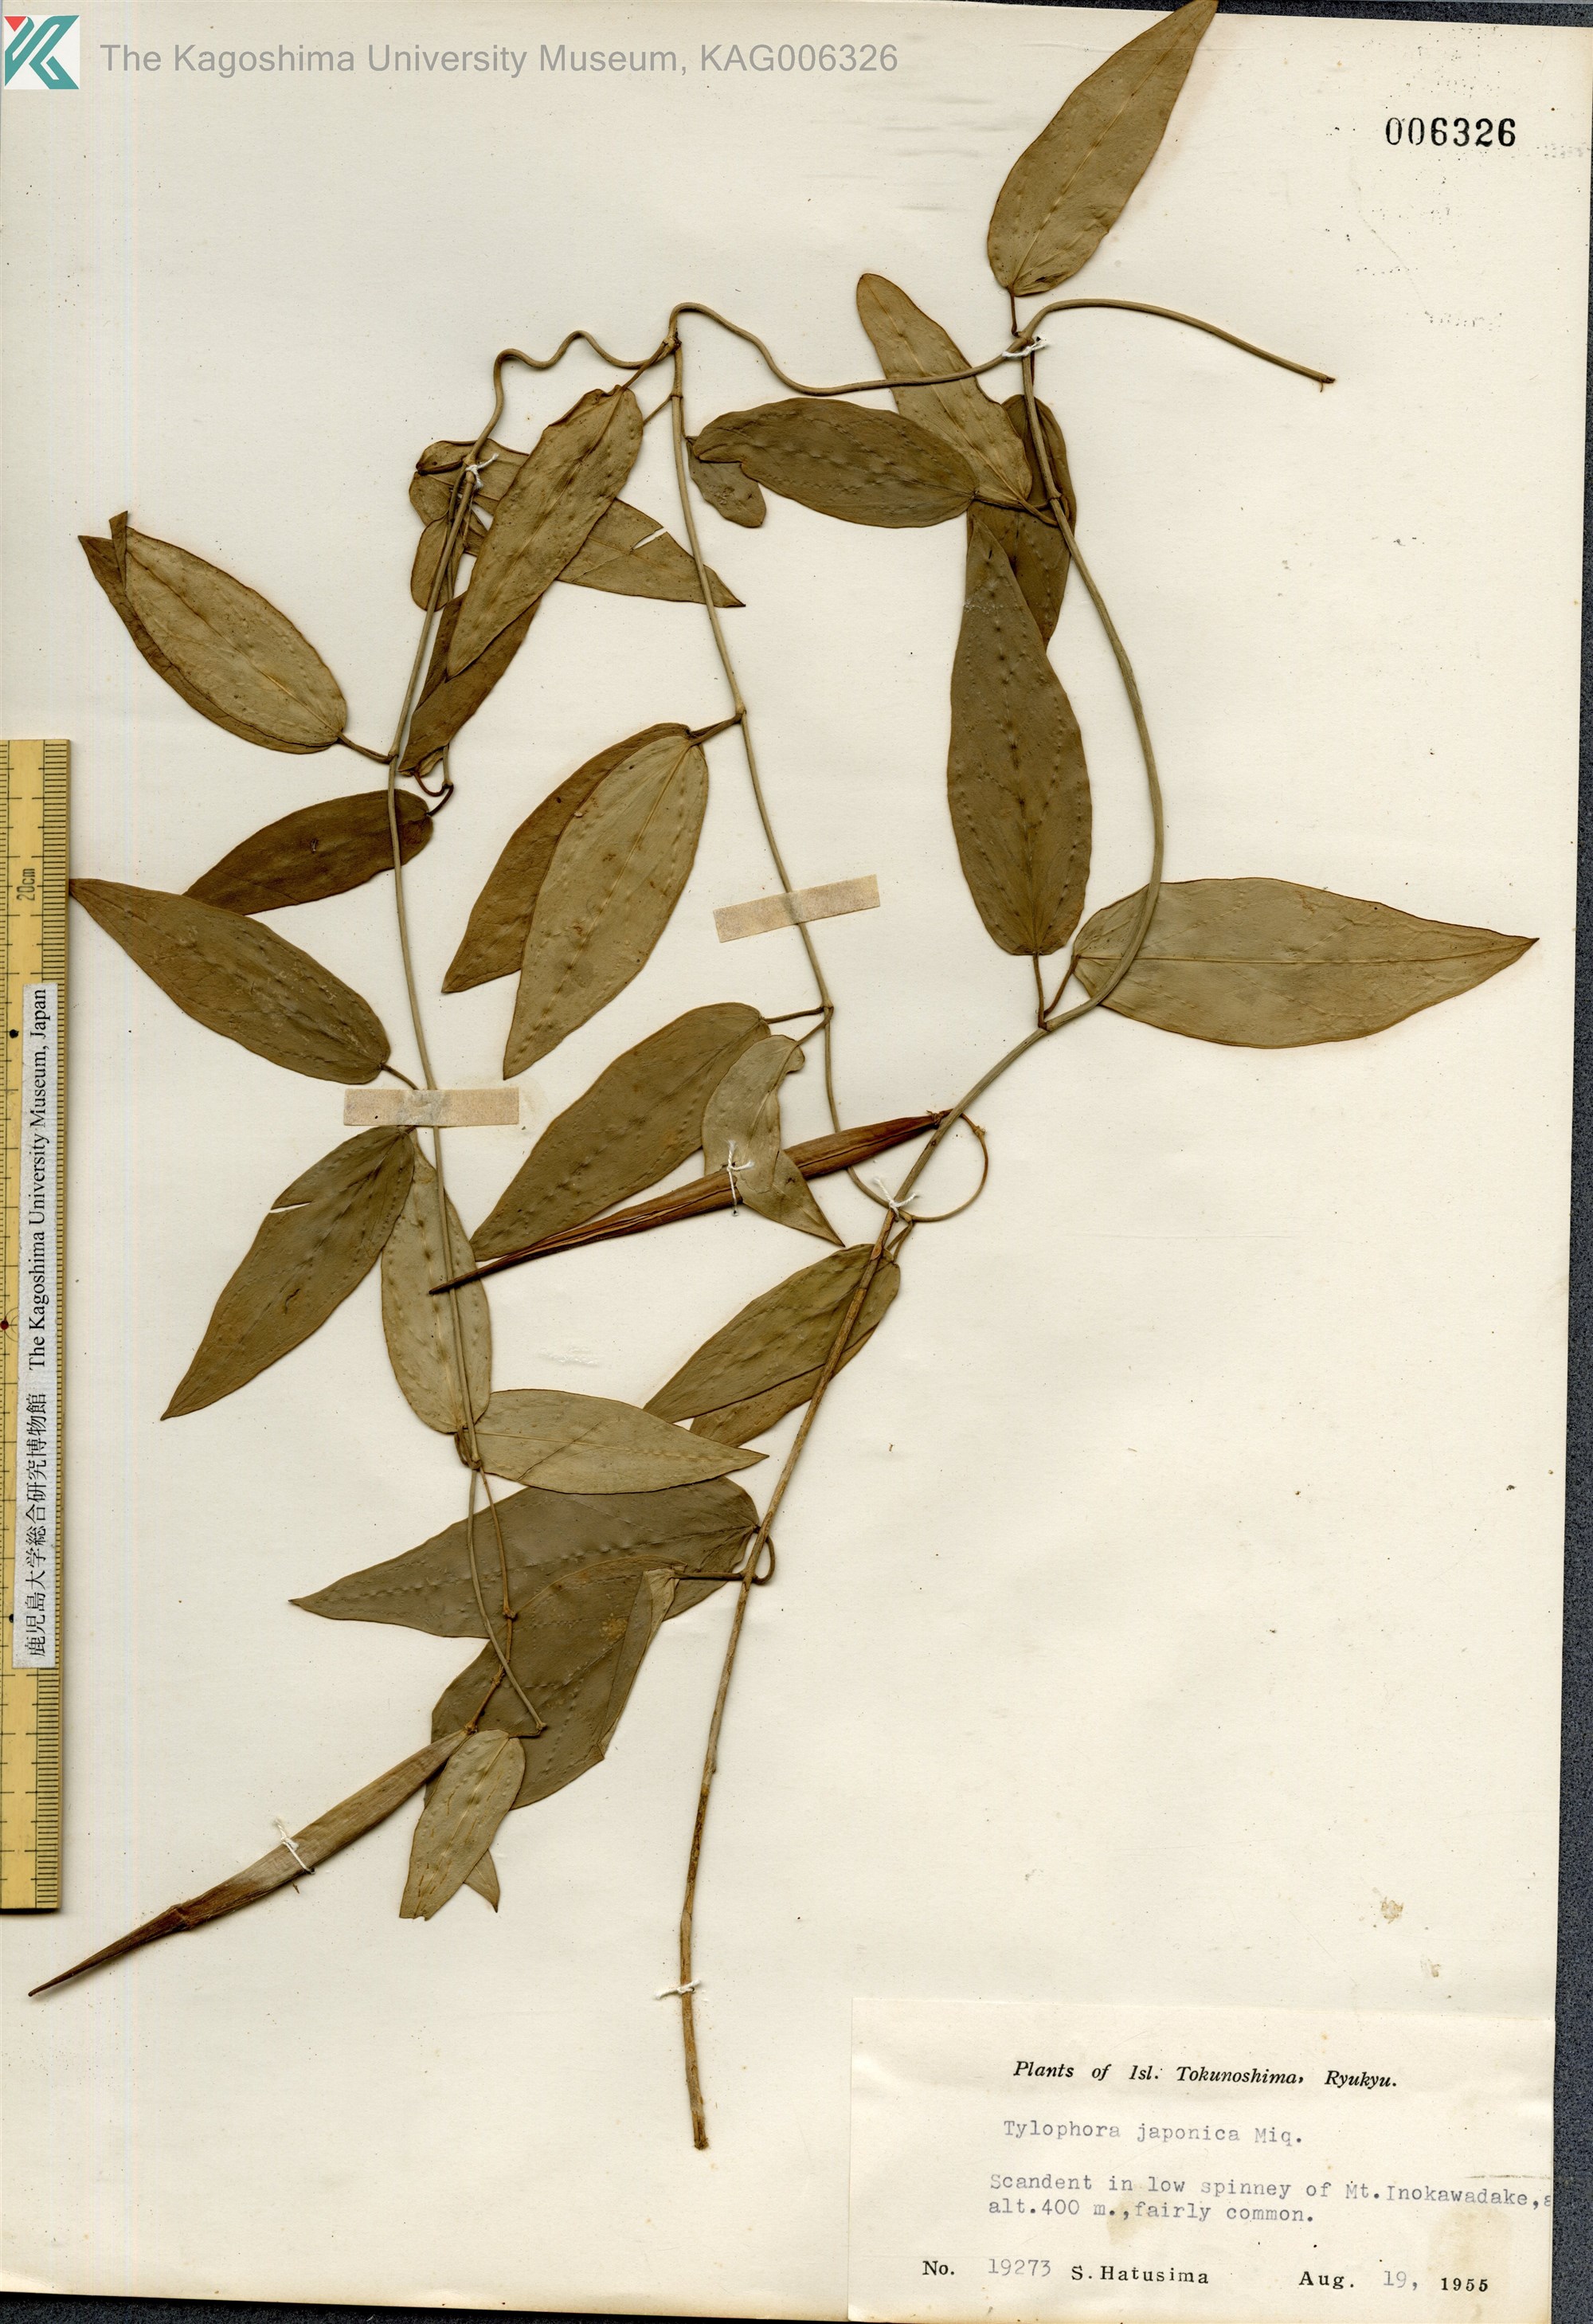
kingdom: Plantae
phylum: Tracheophyta
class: Magnoliopsida
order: Gentianales
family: Apocynaceae
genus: Vincetoxicum
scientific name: Vincetoxicum sieboldii
